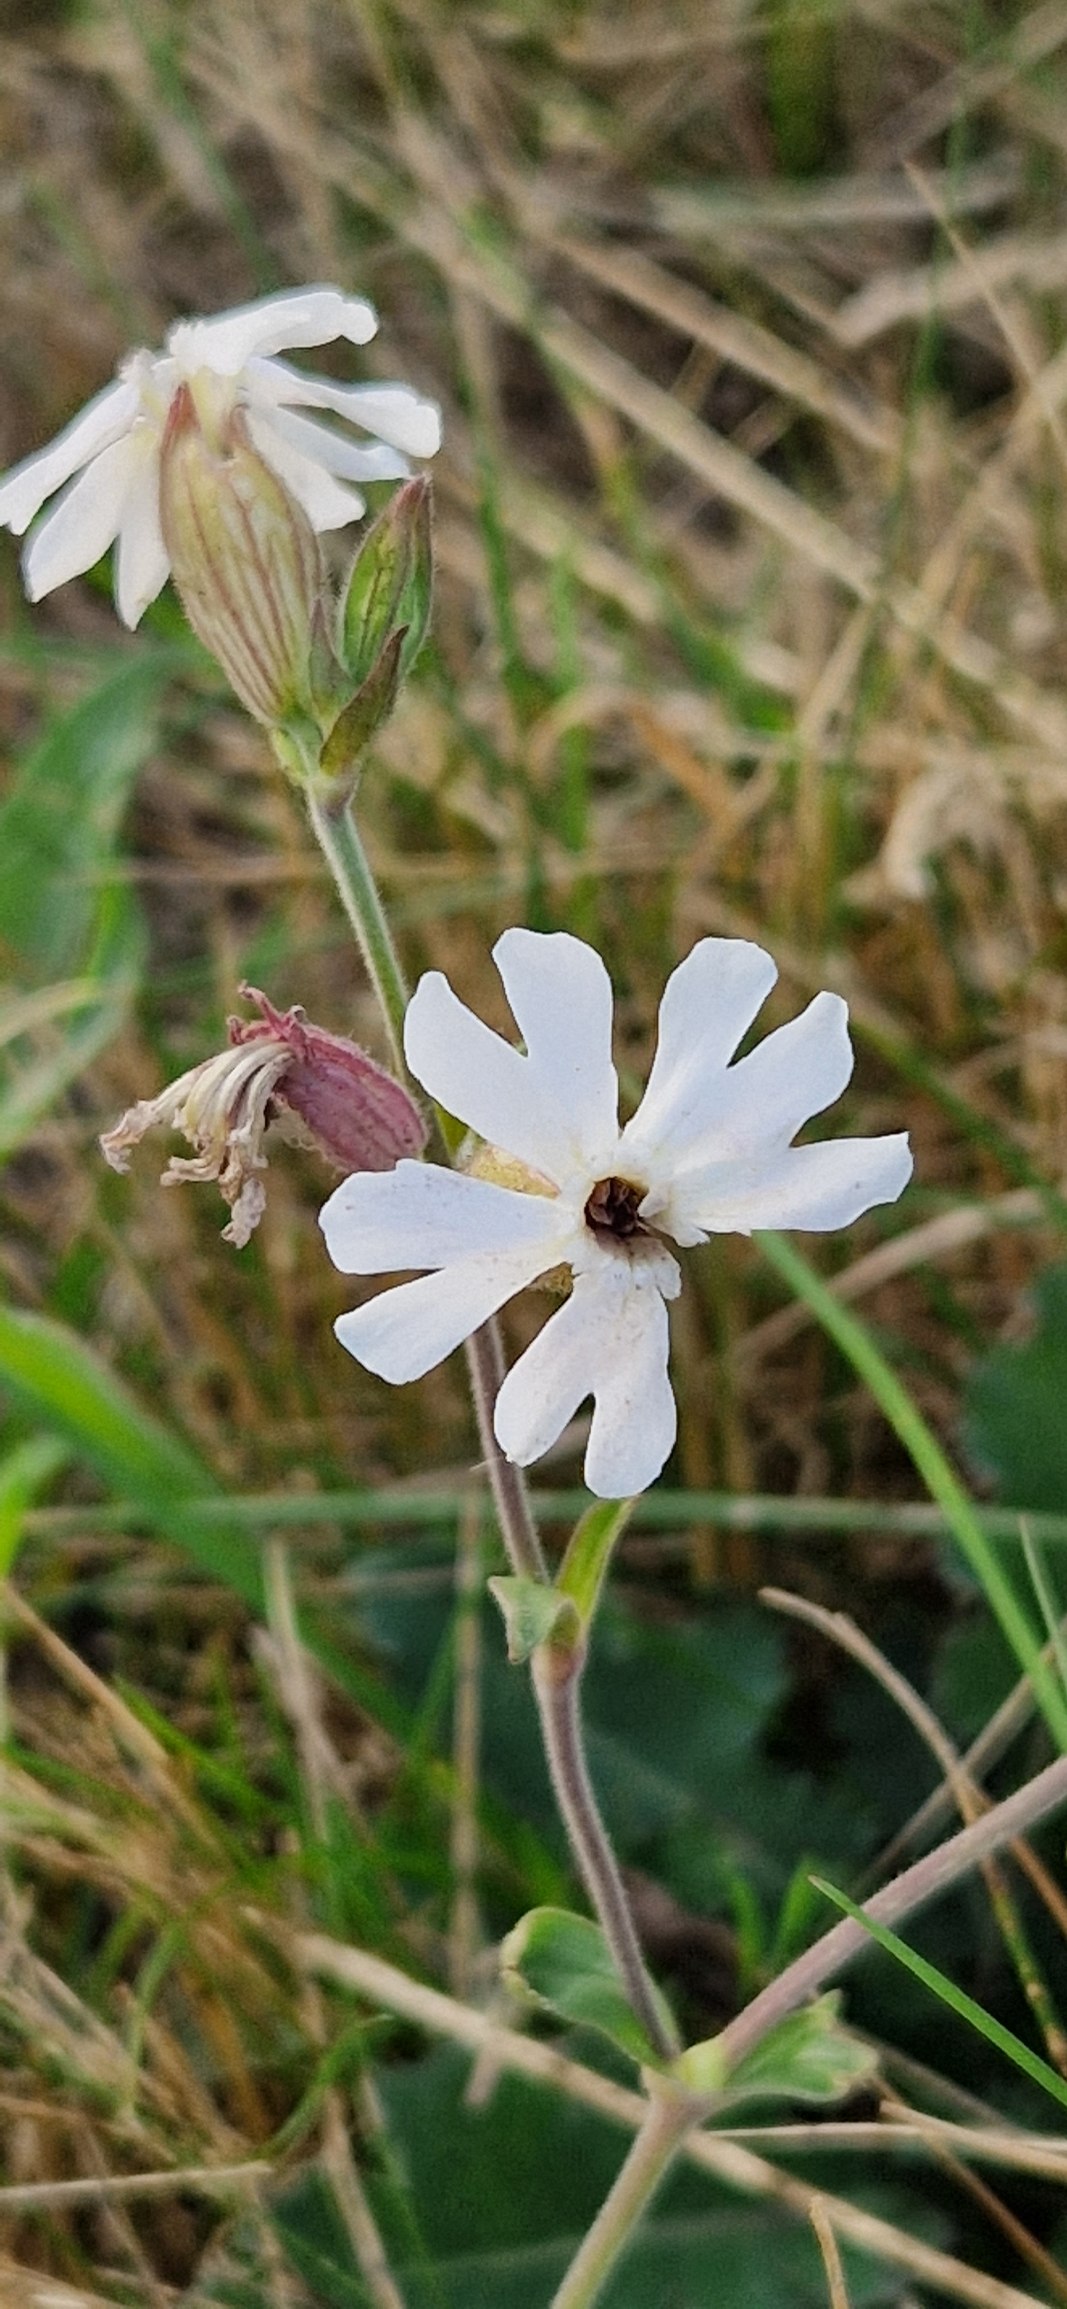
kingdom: Plantae
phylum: Tracheophyta
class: Magnoliopsida
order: Caryophyllales
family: Caryophyllaceae
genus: Silene
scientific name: Silene latifolia
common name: Aftenpragtstjerne
